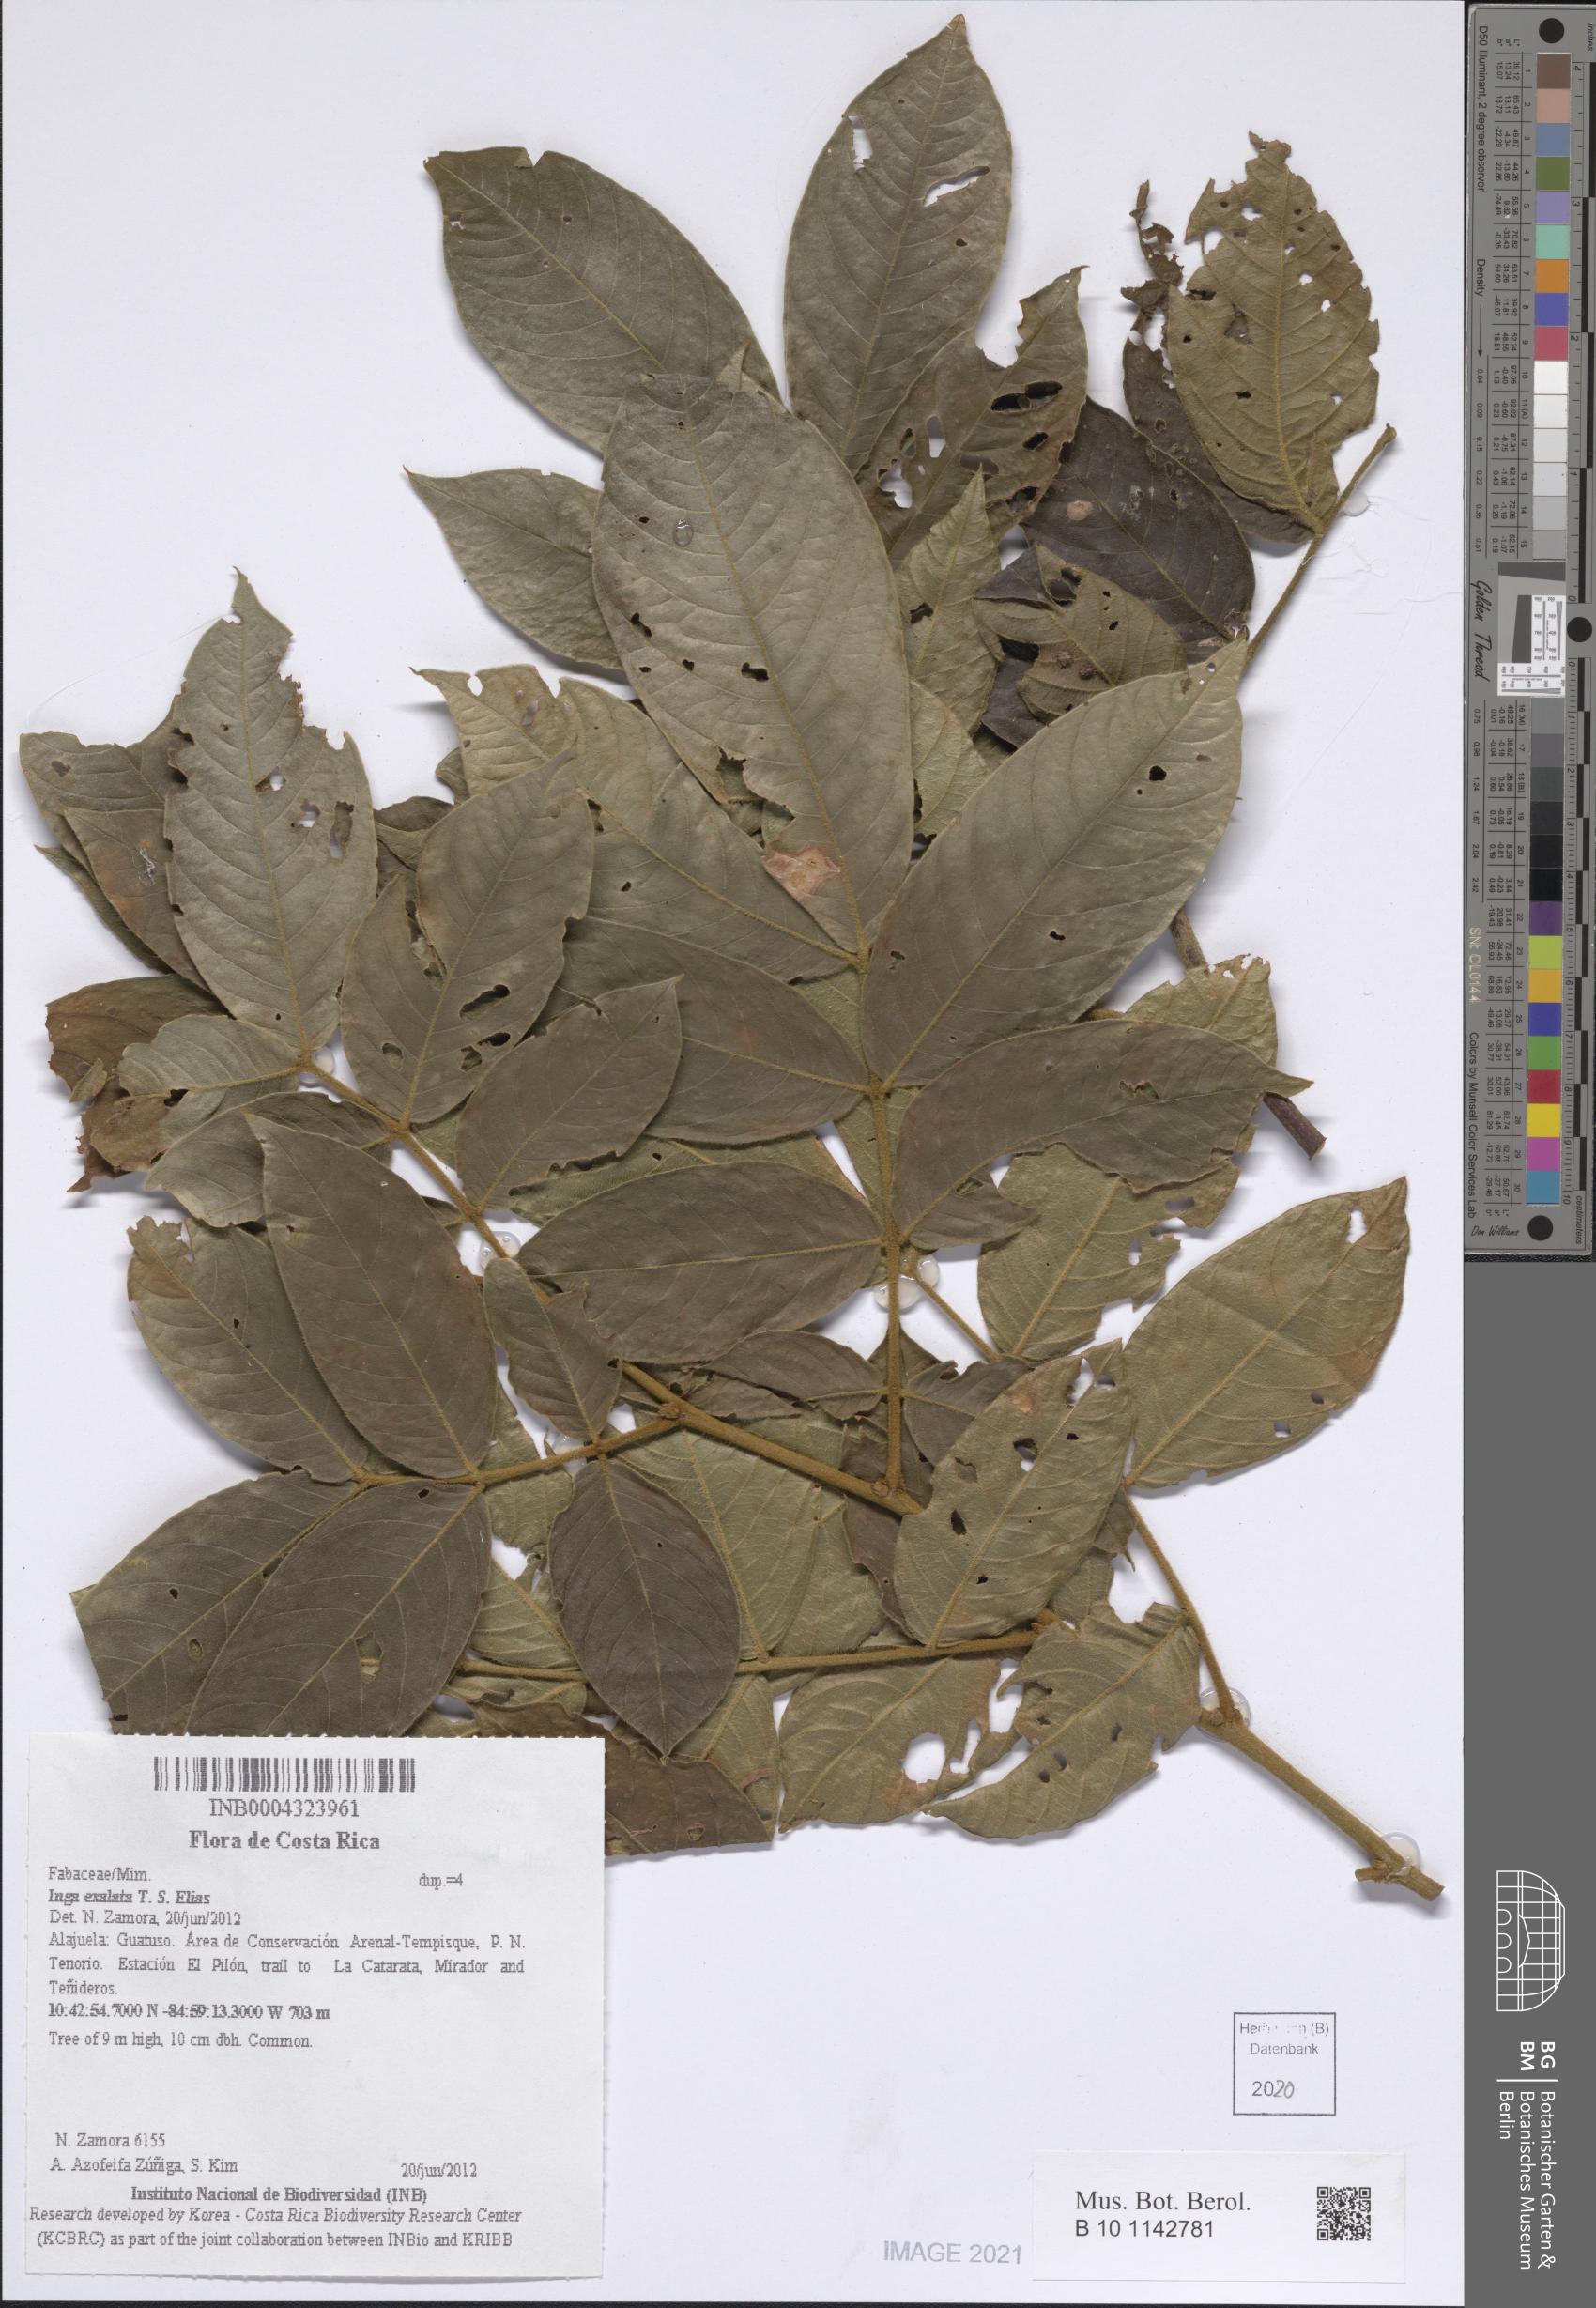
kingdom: Plantae
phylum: Tracheophyta
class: Magnoliopsida
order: Fabales
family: Fabaceae
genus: Inga
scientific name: Inga exalata
